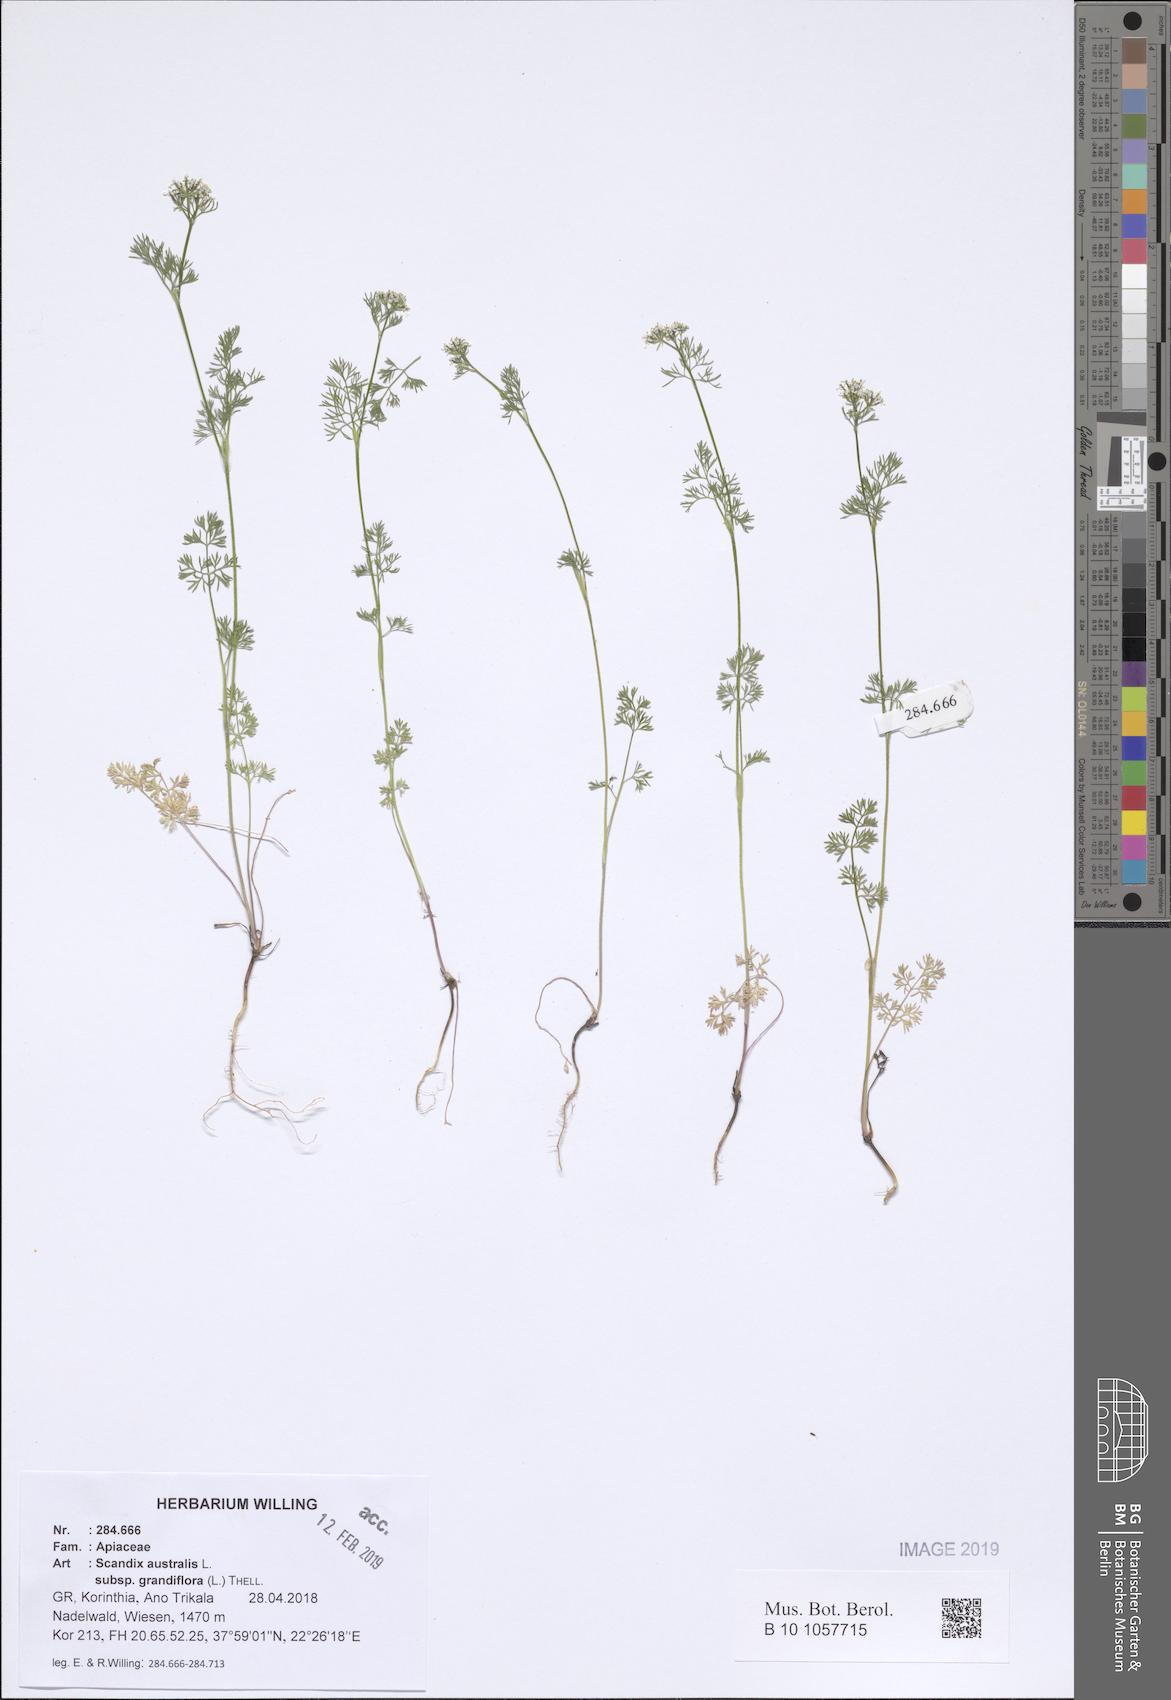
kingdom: Plantae
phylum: Tracheophyta
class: Magnoliopsida
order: Apiales
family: Apiaceae
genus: Scandix
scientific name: Scandix australis
